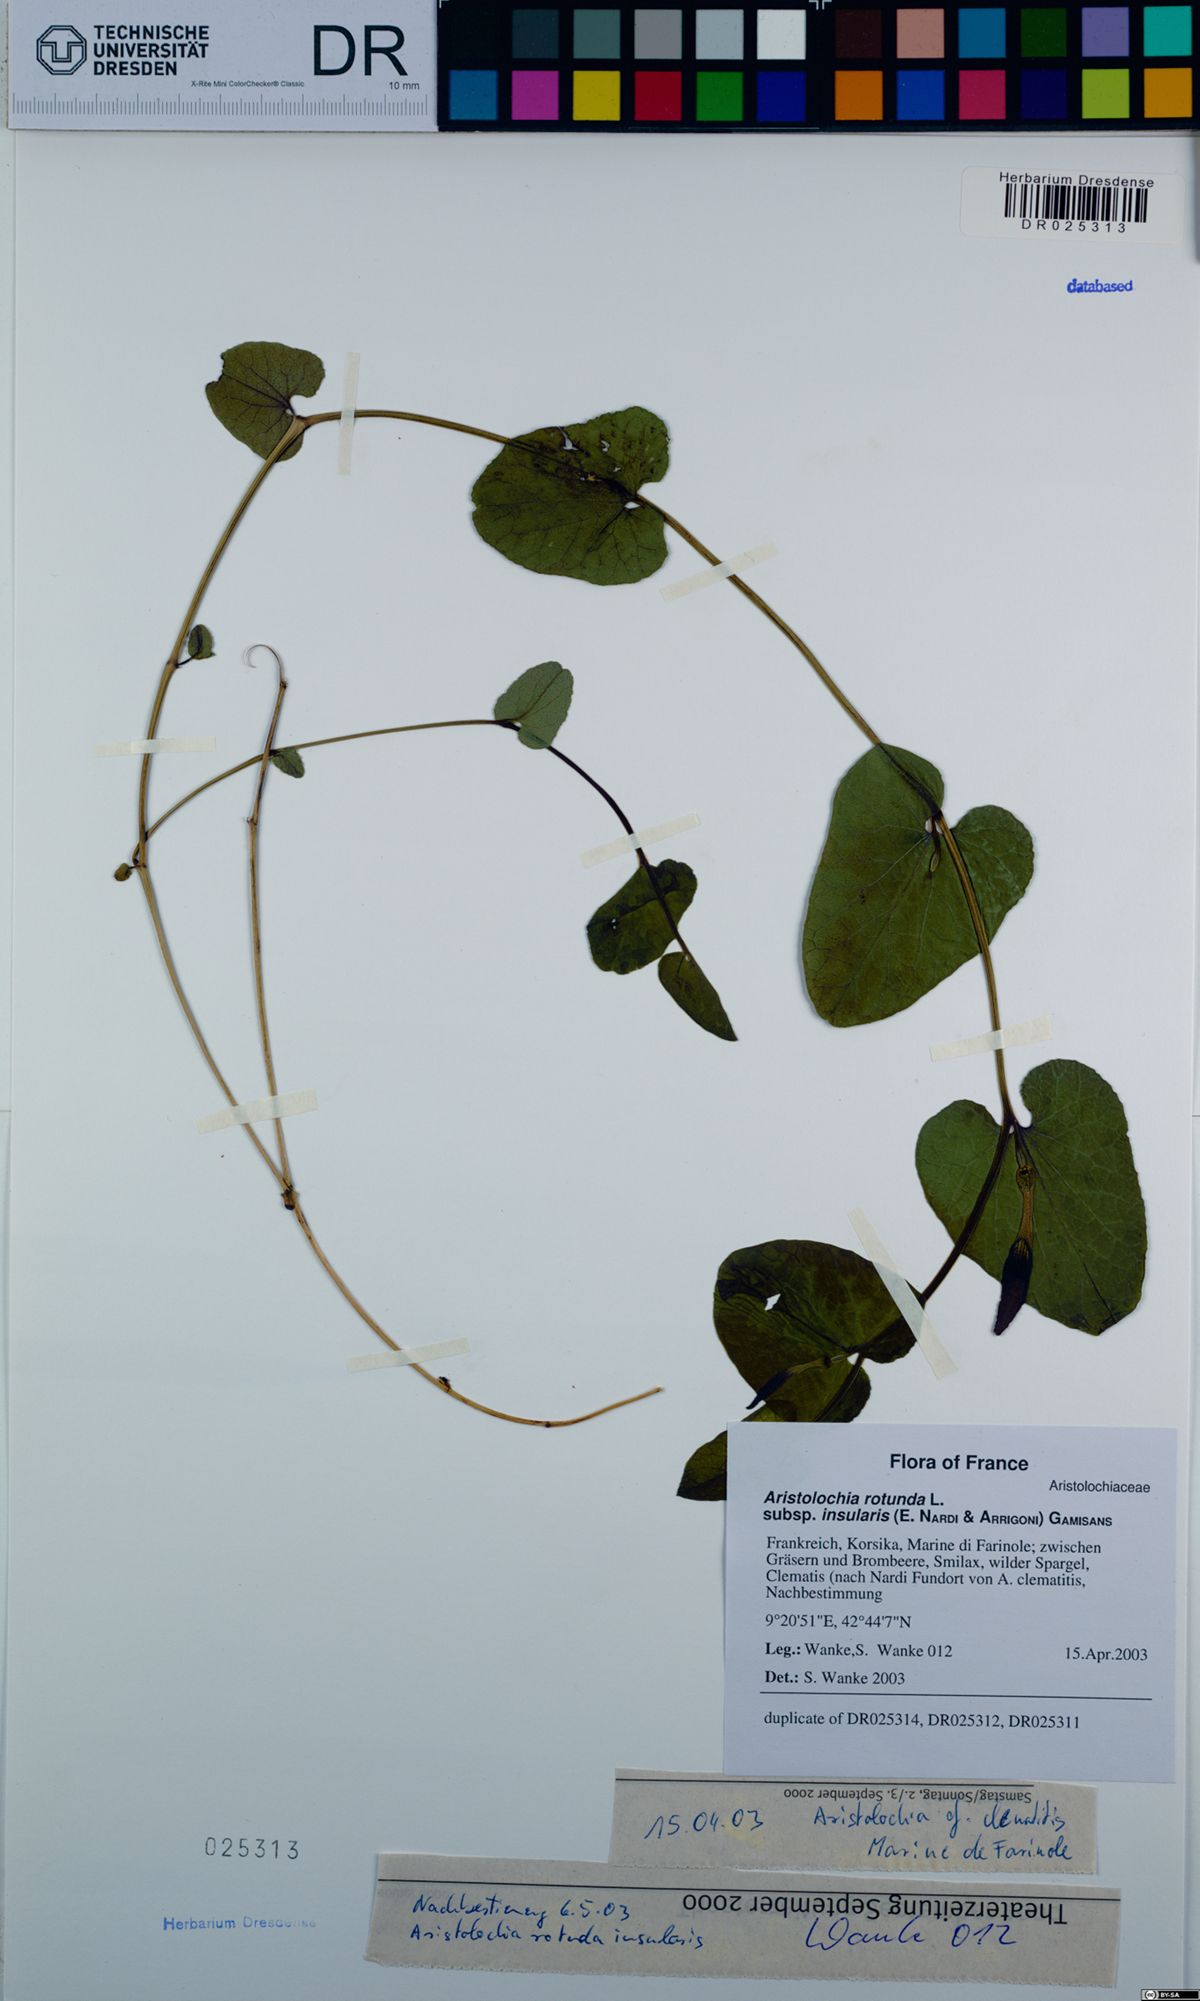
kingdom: Plantae
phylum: Tracheophyta
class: Magnoliopsida
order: Piperales
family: Aristolochiaceae
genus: Aristolochia
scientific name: Aristolochia rotunda
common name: Smearwort
